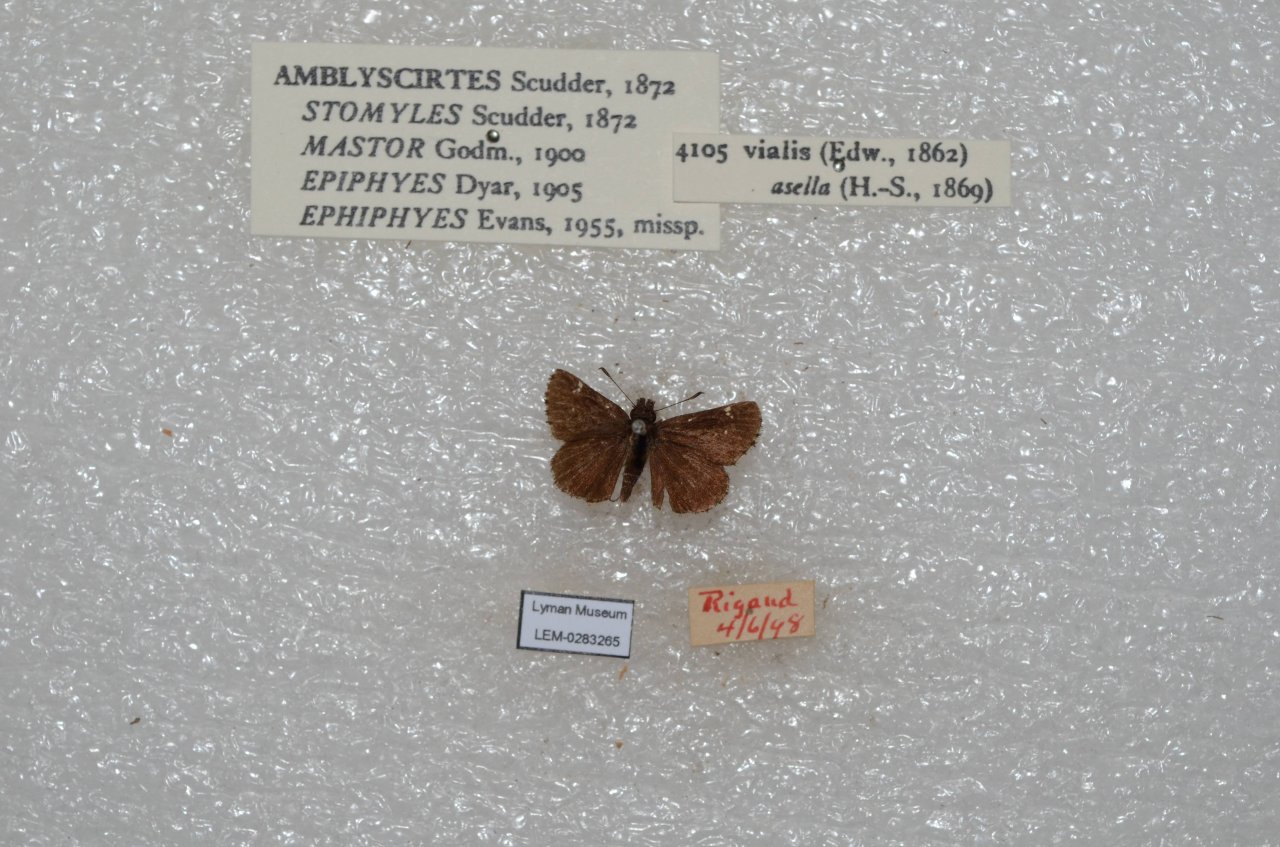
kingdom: Animalia
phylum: Arthropoda
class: Insecta
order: Lepidoptera
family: Hesperiidae
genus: Mastor
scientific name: Mastor vialis
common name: Common Roadside-Skipper
